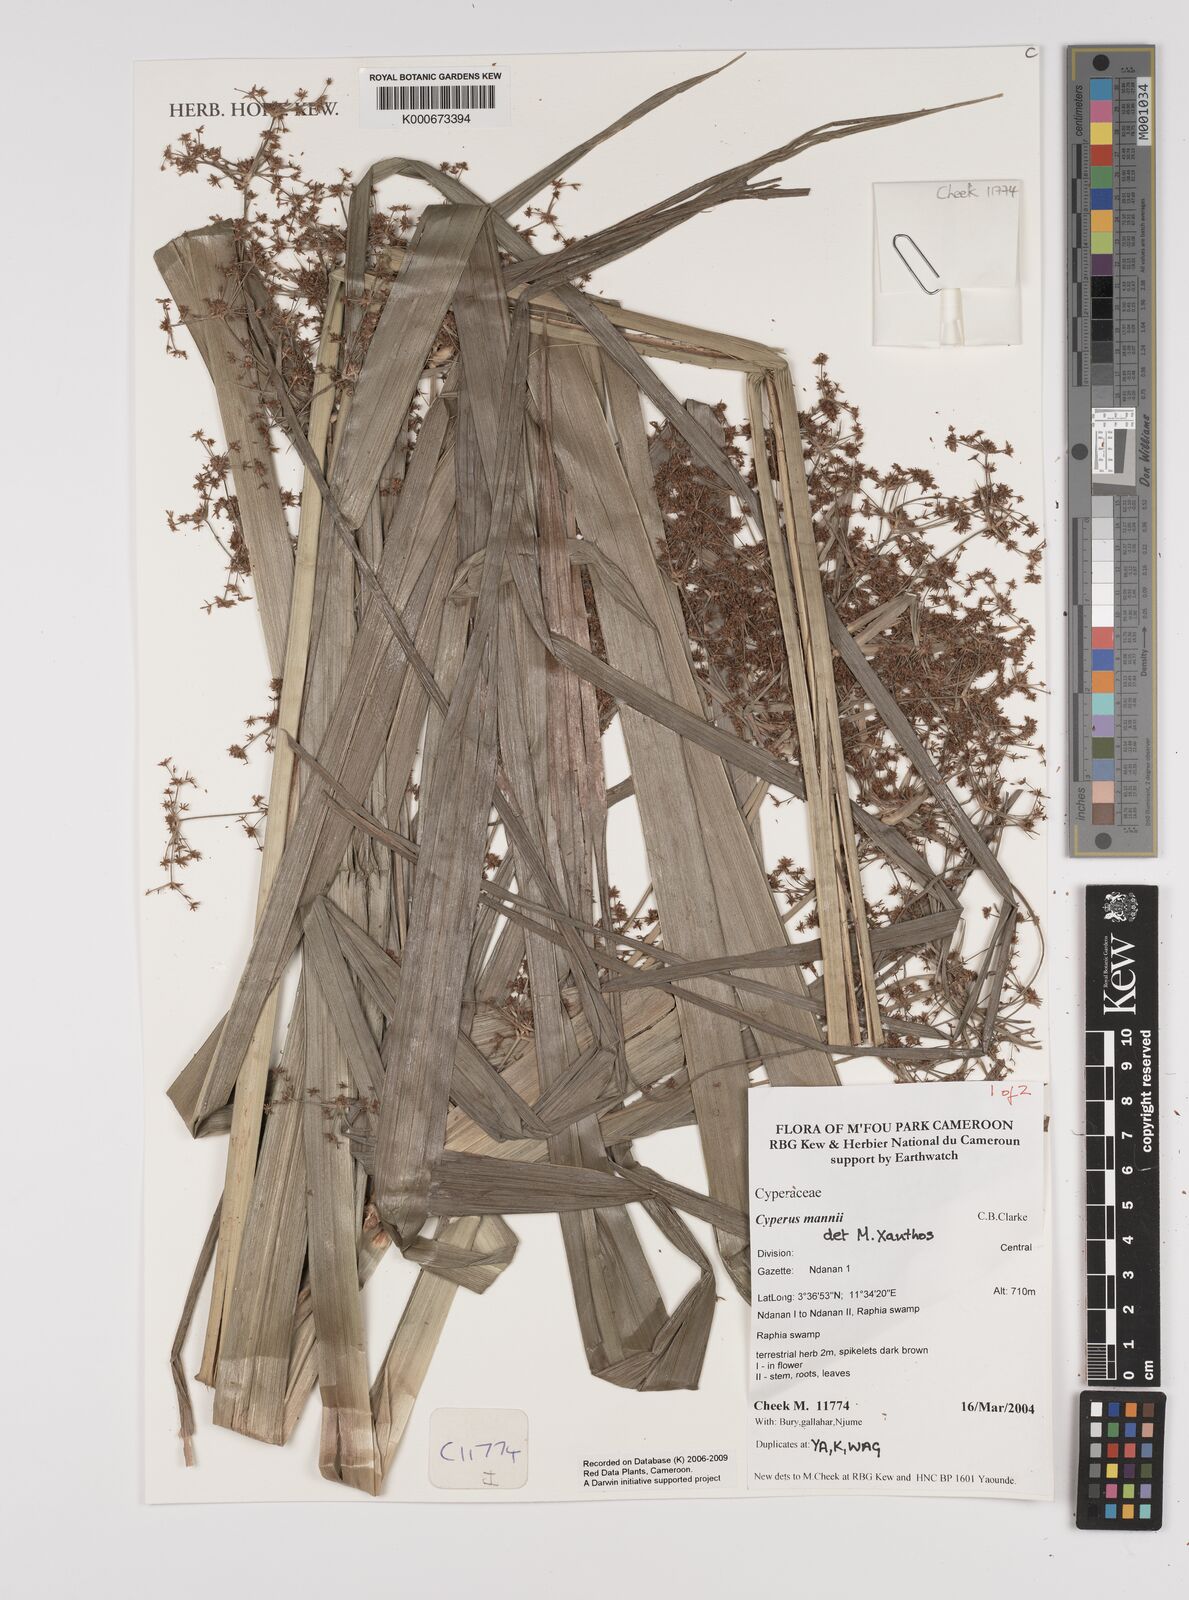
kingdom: Plantae
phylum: Tracheophyta
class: Liliopsida
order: Poales
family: Cyperaceae
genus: Cyperus
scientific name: Cyperus baronii
